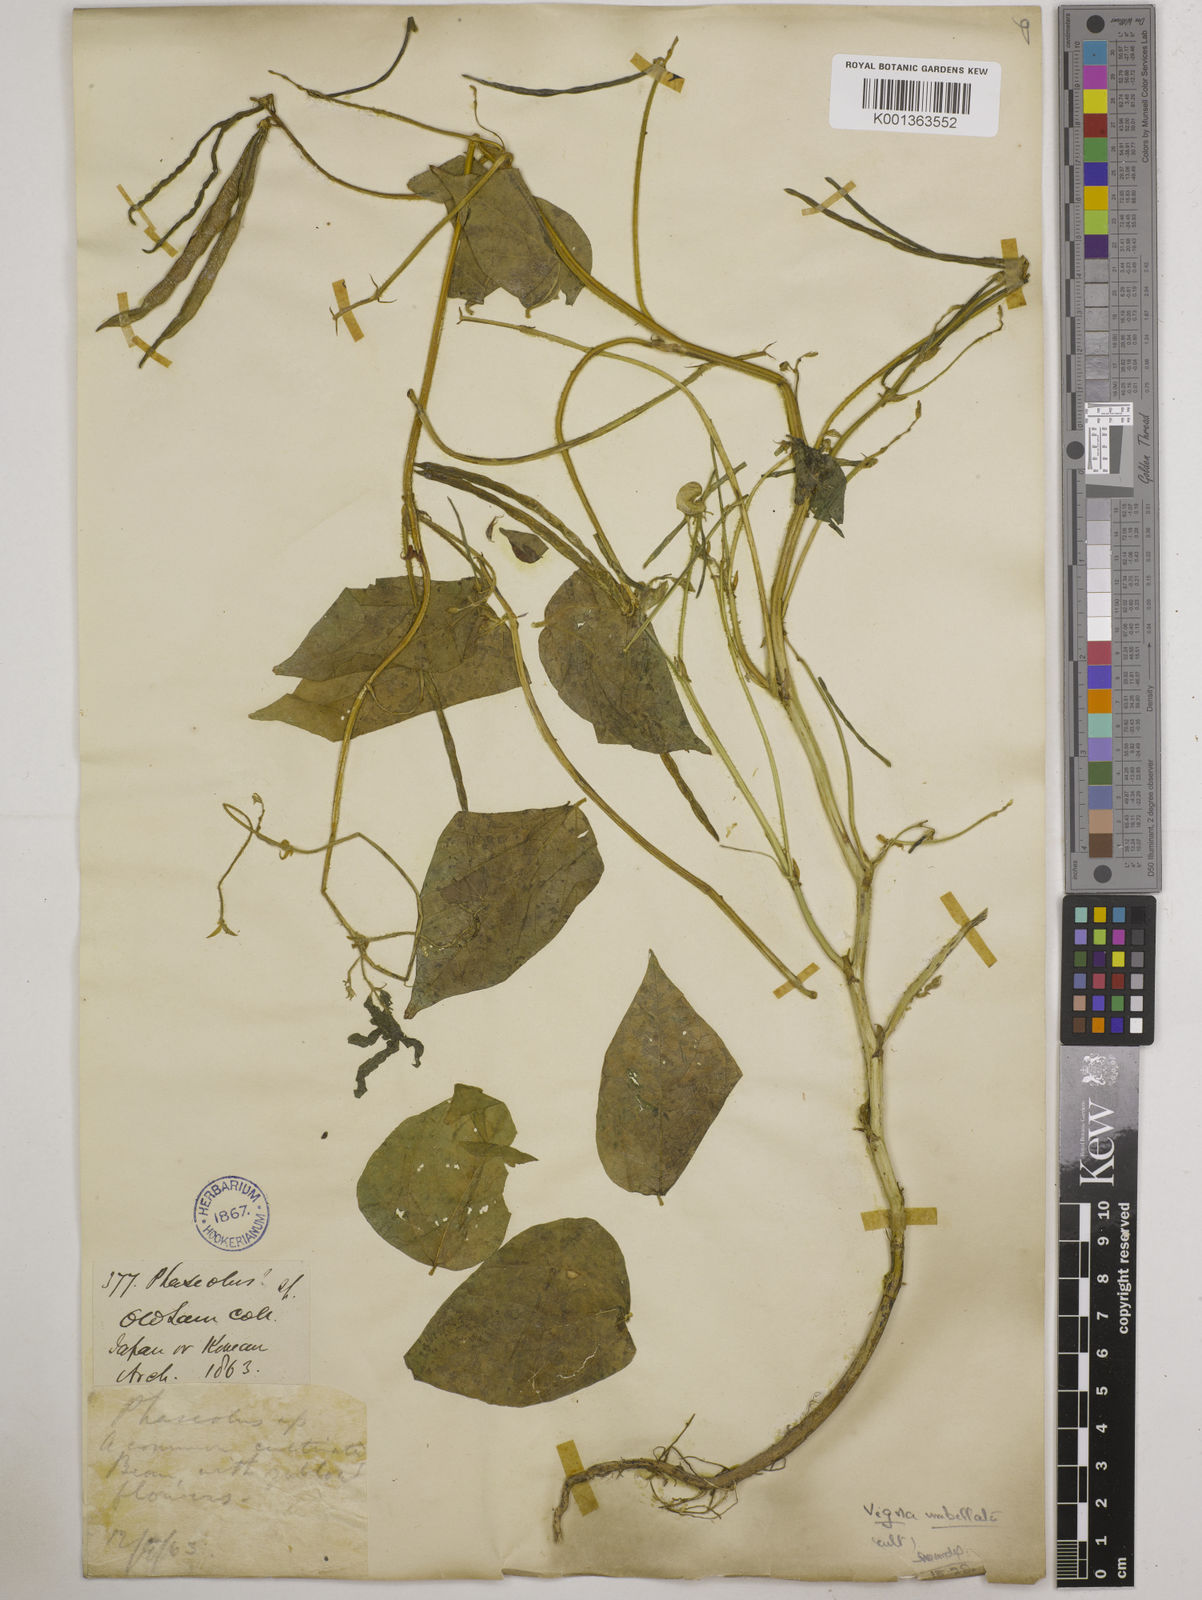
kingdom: Plantae
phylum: Tracheophyta
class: Magnoliopsida
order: Fabales
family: Fabaceae
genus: Vigna
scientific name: Vigna umbellata
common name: Oriental-bean
